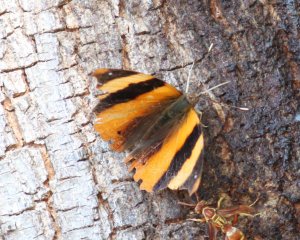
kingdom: Animalia
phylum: Arthropoda
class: Insecta
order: Lepidoptera
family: Nymphalidae
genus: Epiphile
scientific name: Epiphile adrasta
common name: Common Banner
